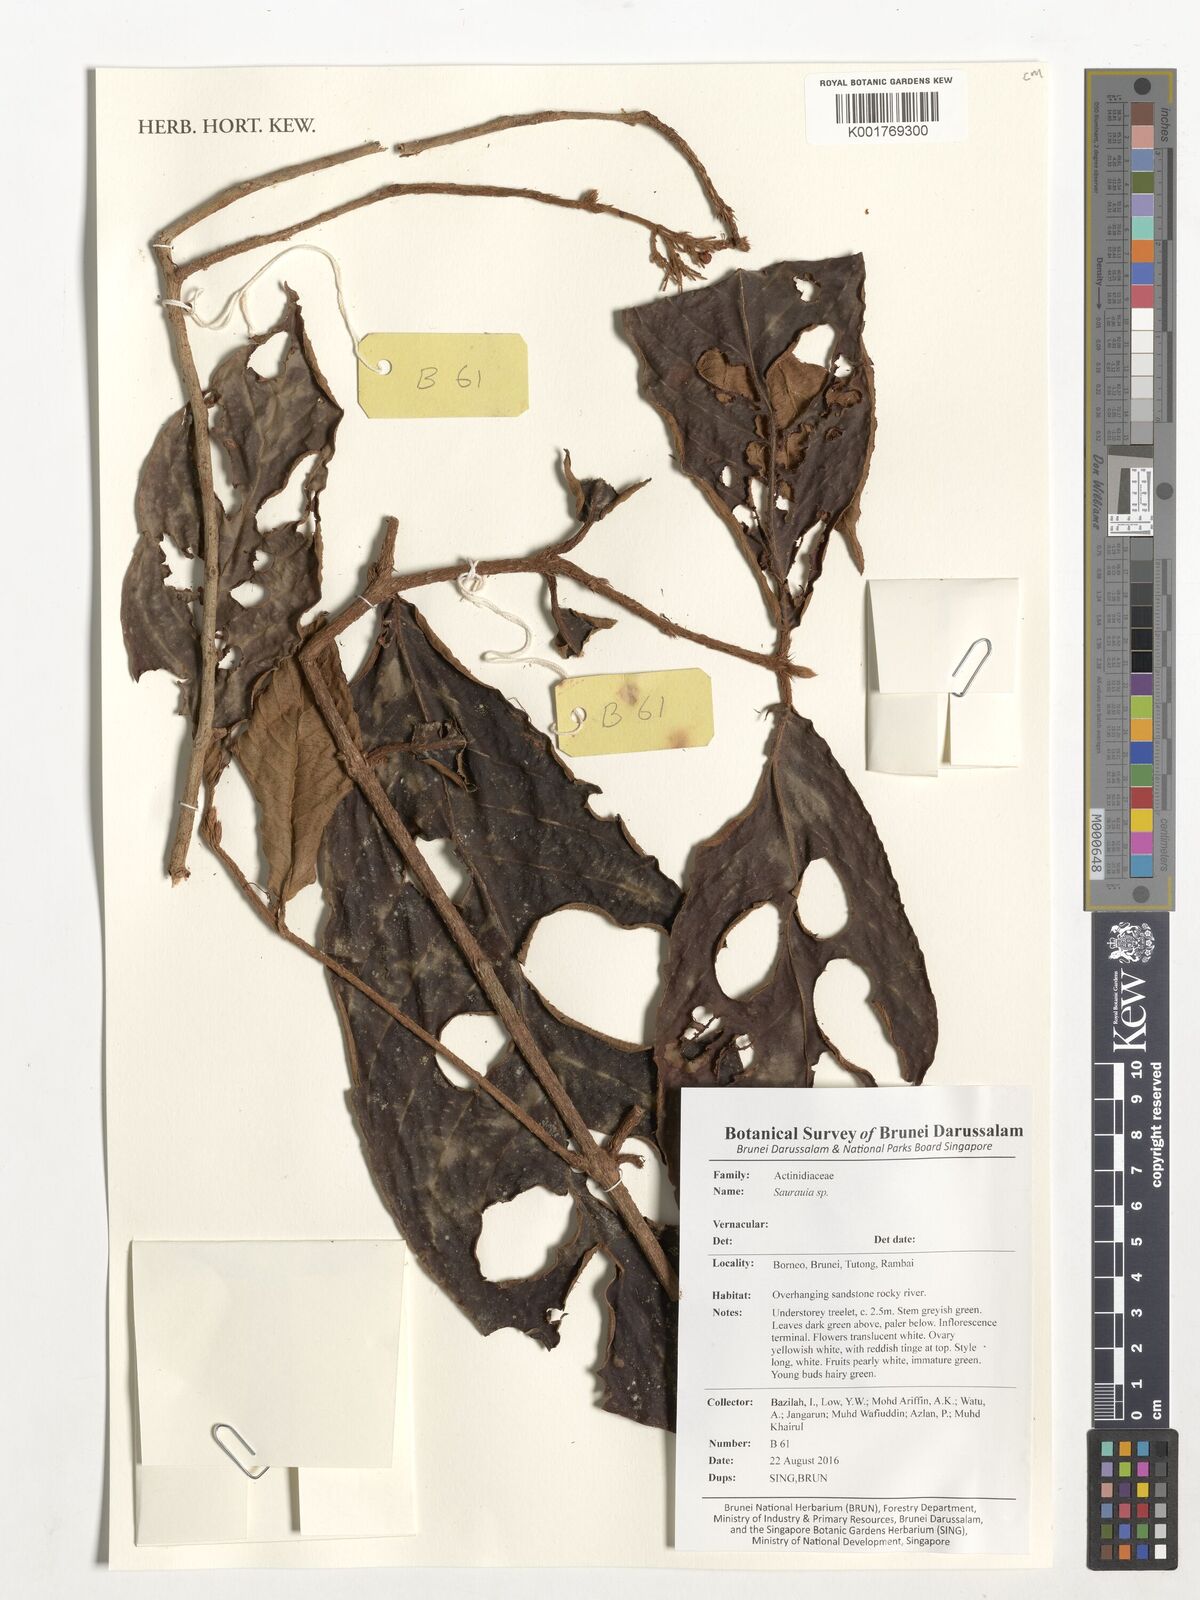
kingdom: Plantae
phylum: Tracheophyta
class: Magnoliopsida
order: Ericales
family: Actinidiaceae
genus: Saurauia
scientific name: Saurauia
